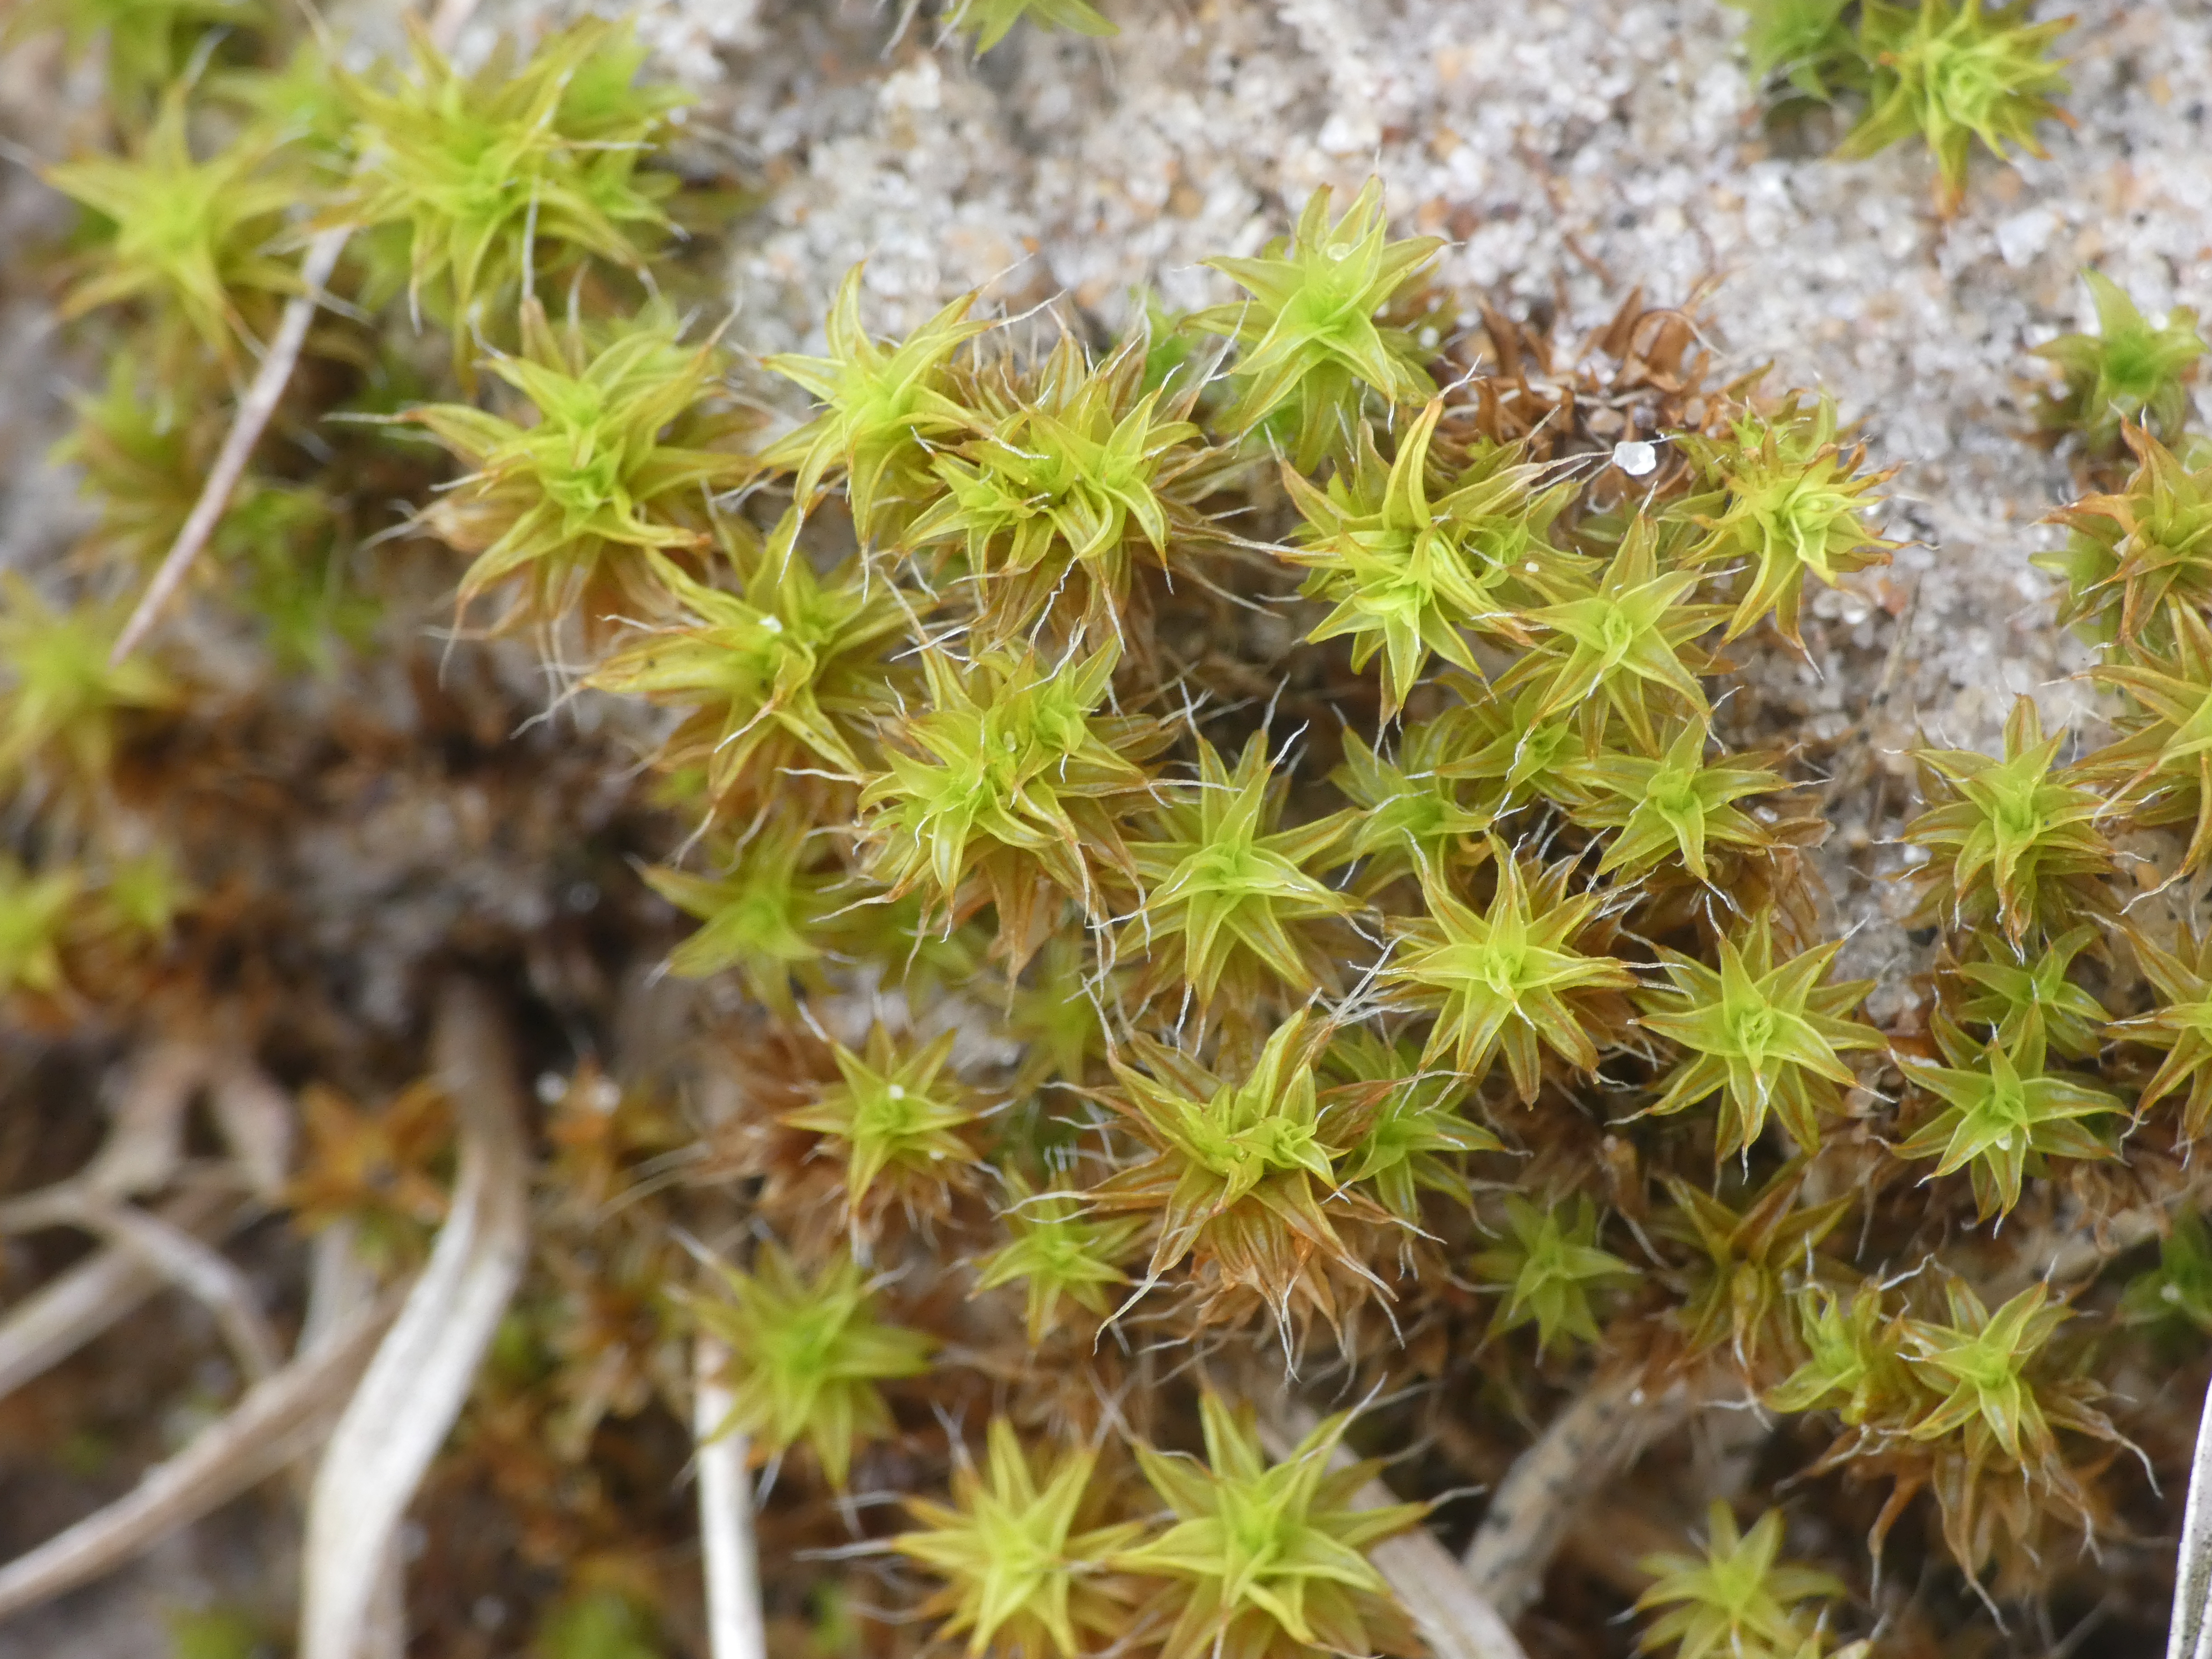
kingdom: Plantae
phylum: Bryophyta
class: Bryopsida
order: Pottiales
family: Pottiaceae
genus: Syntrichia
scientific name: Syntrichia ruralis
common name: Spidsbladet hårstjerne
